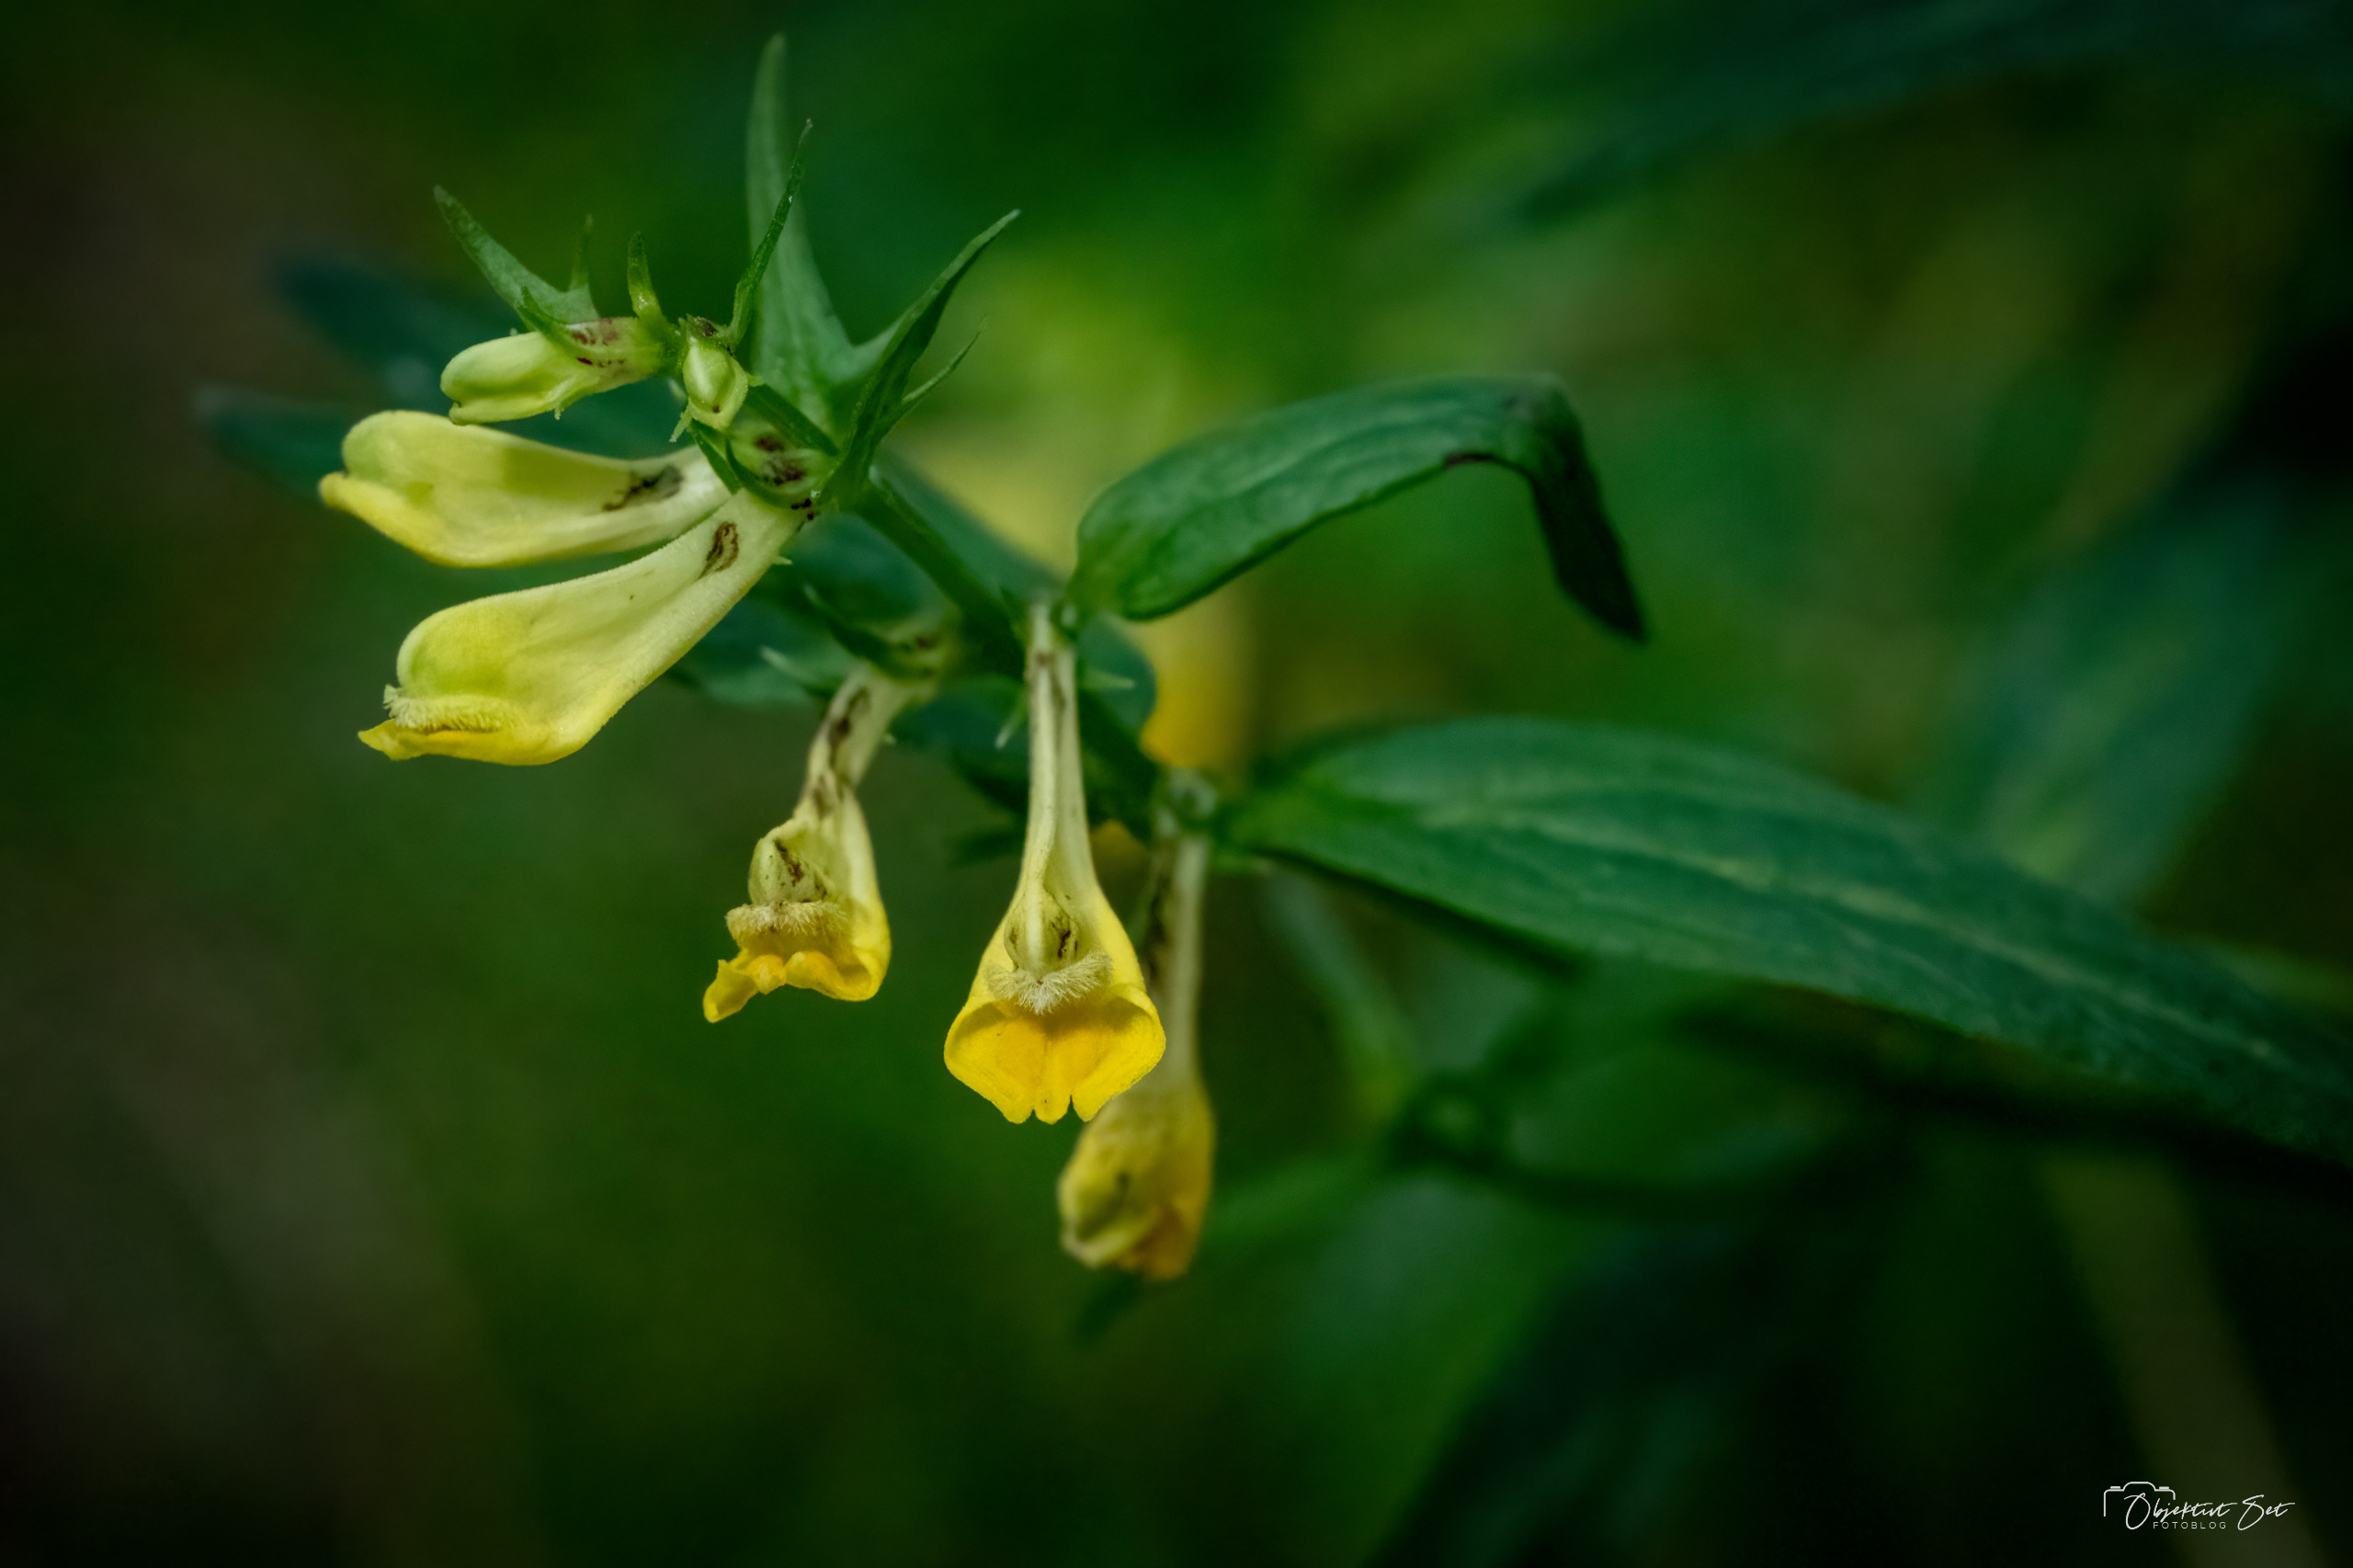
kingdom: Plantae
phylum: Tracheophyta
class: Magnoliopsida
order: Lamiales
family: Orobanchaceae
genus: Melampyrum
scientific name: Melampyrum pratense
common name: Almindelig kohvede
